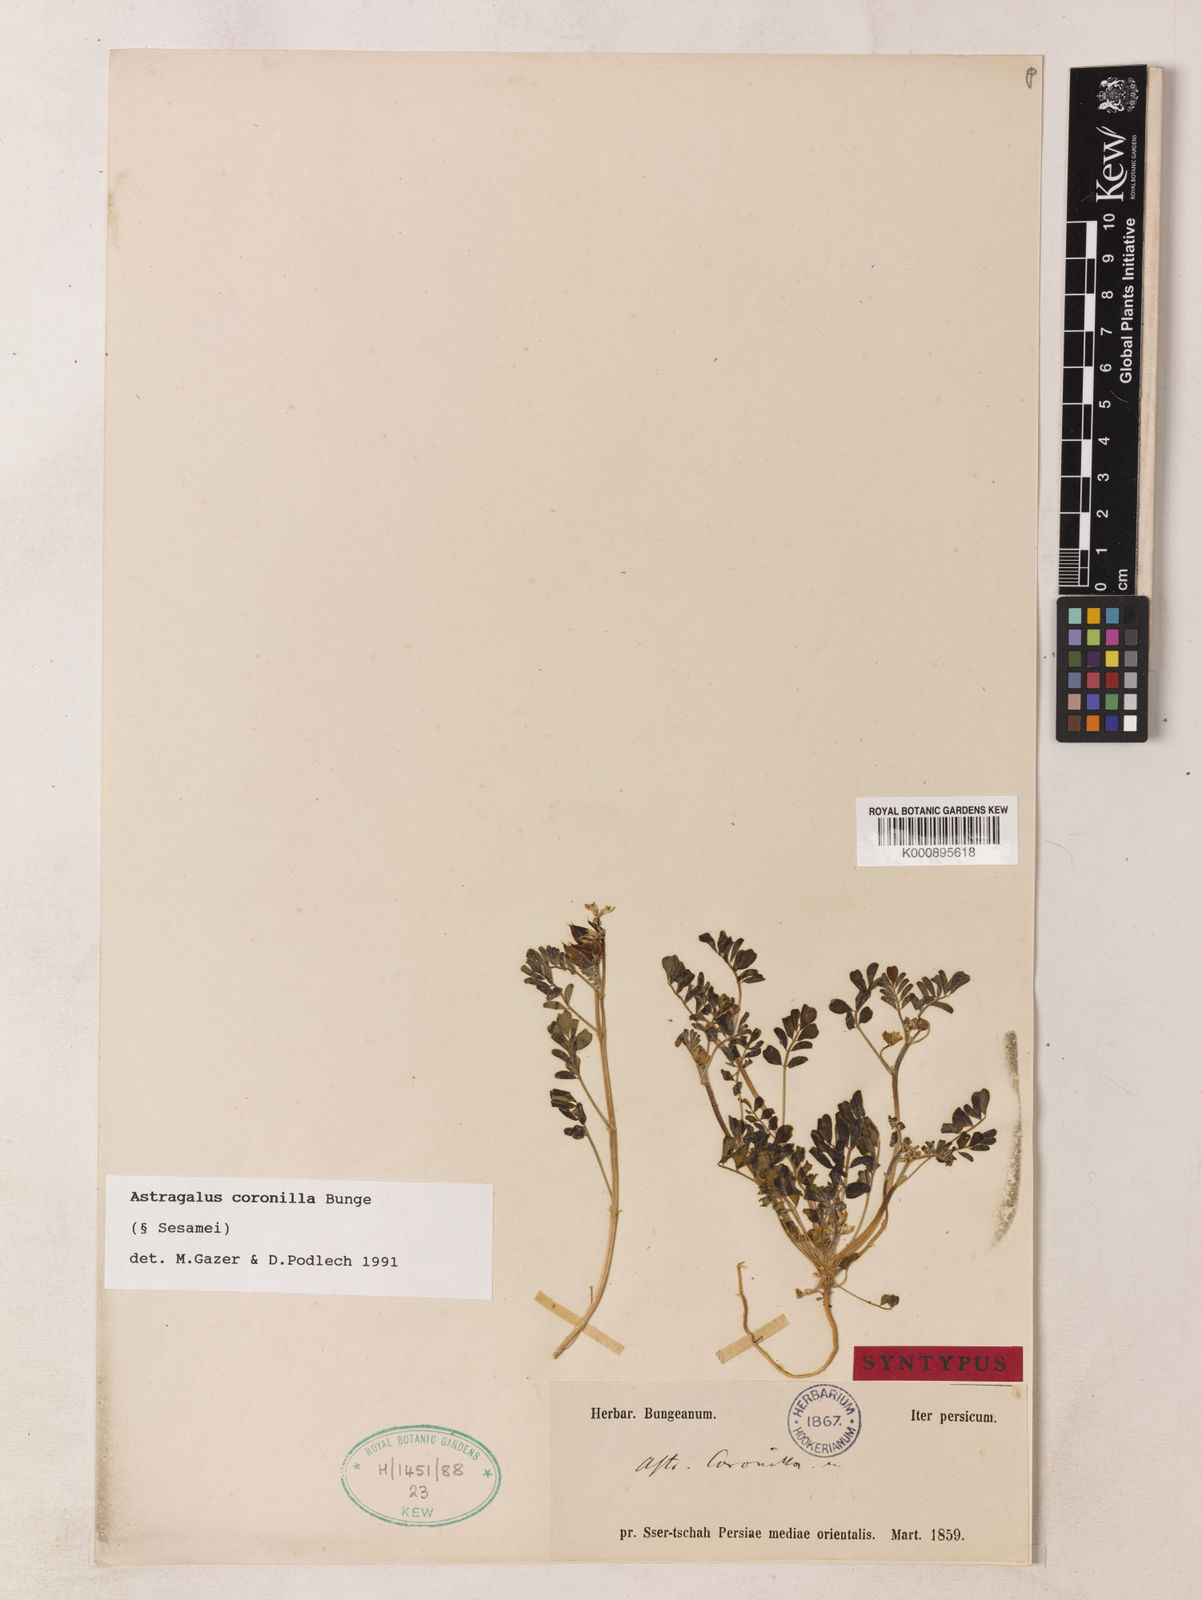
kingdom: Plantae
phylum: Tracheophyta
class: Magnoliopsida
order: Fabales
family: Fabaceae
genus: Astragalus
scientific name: Astragalus
